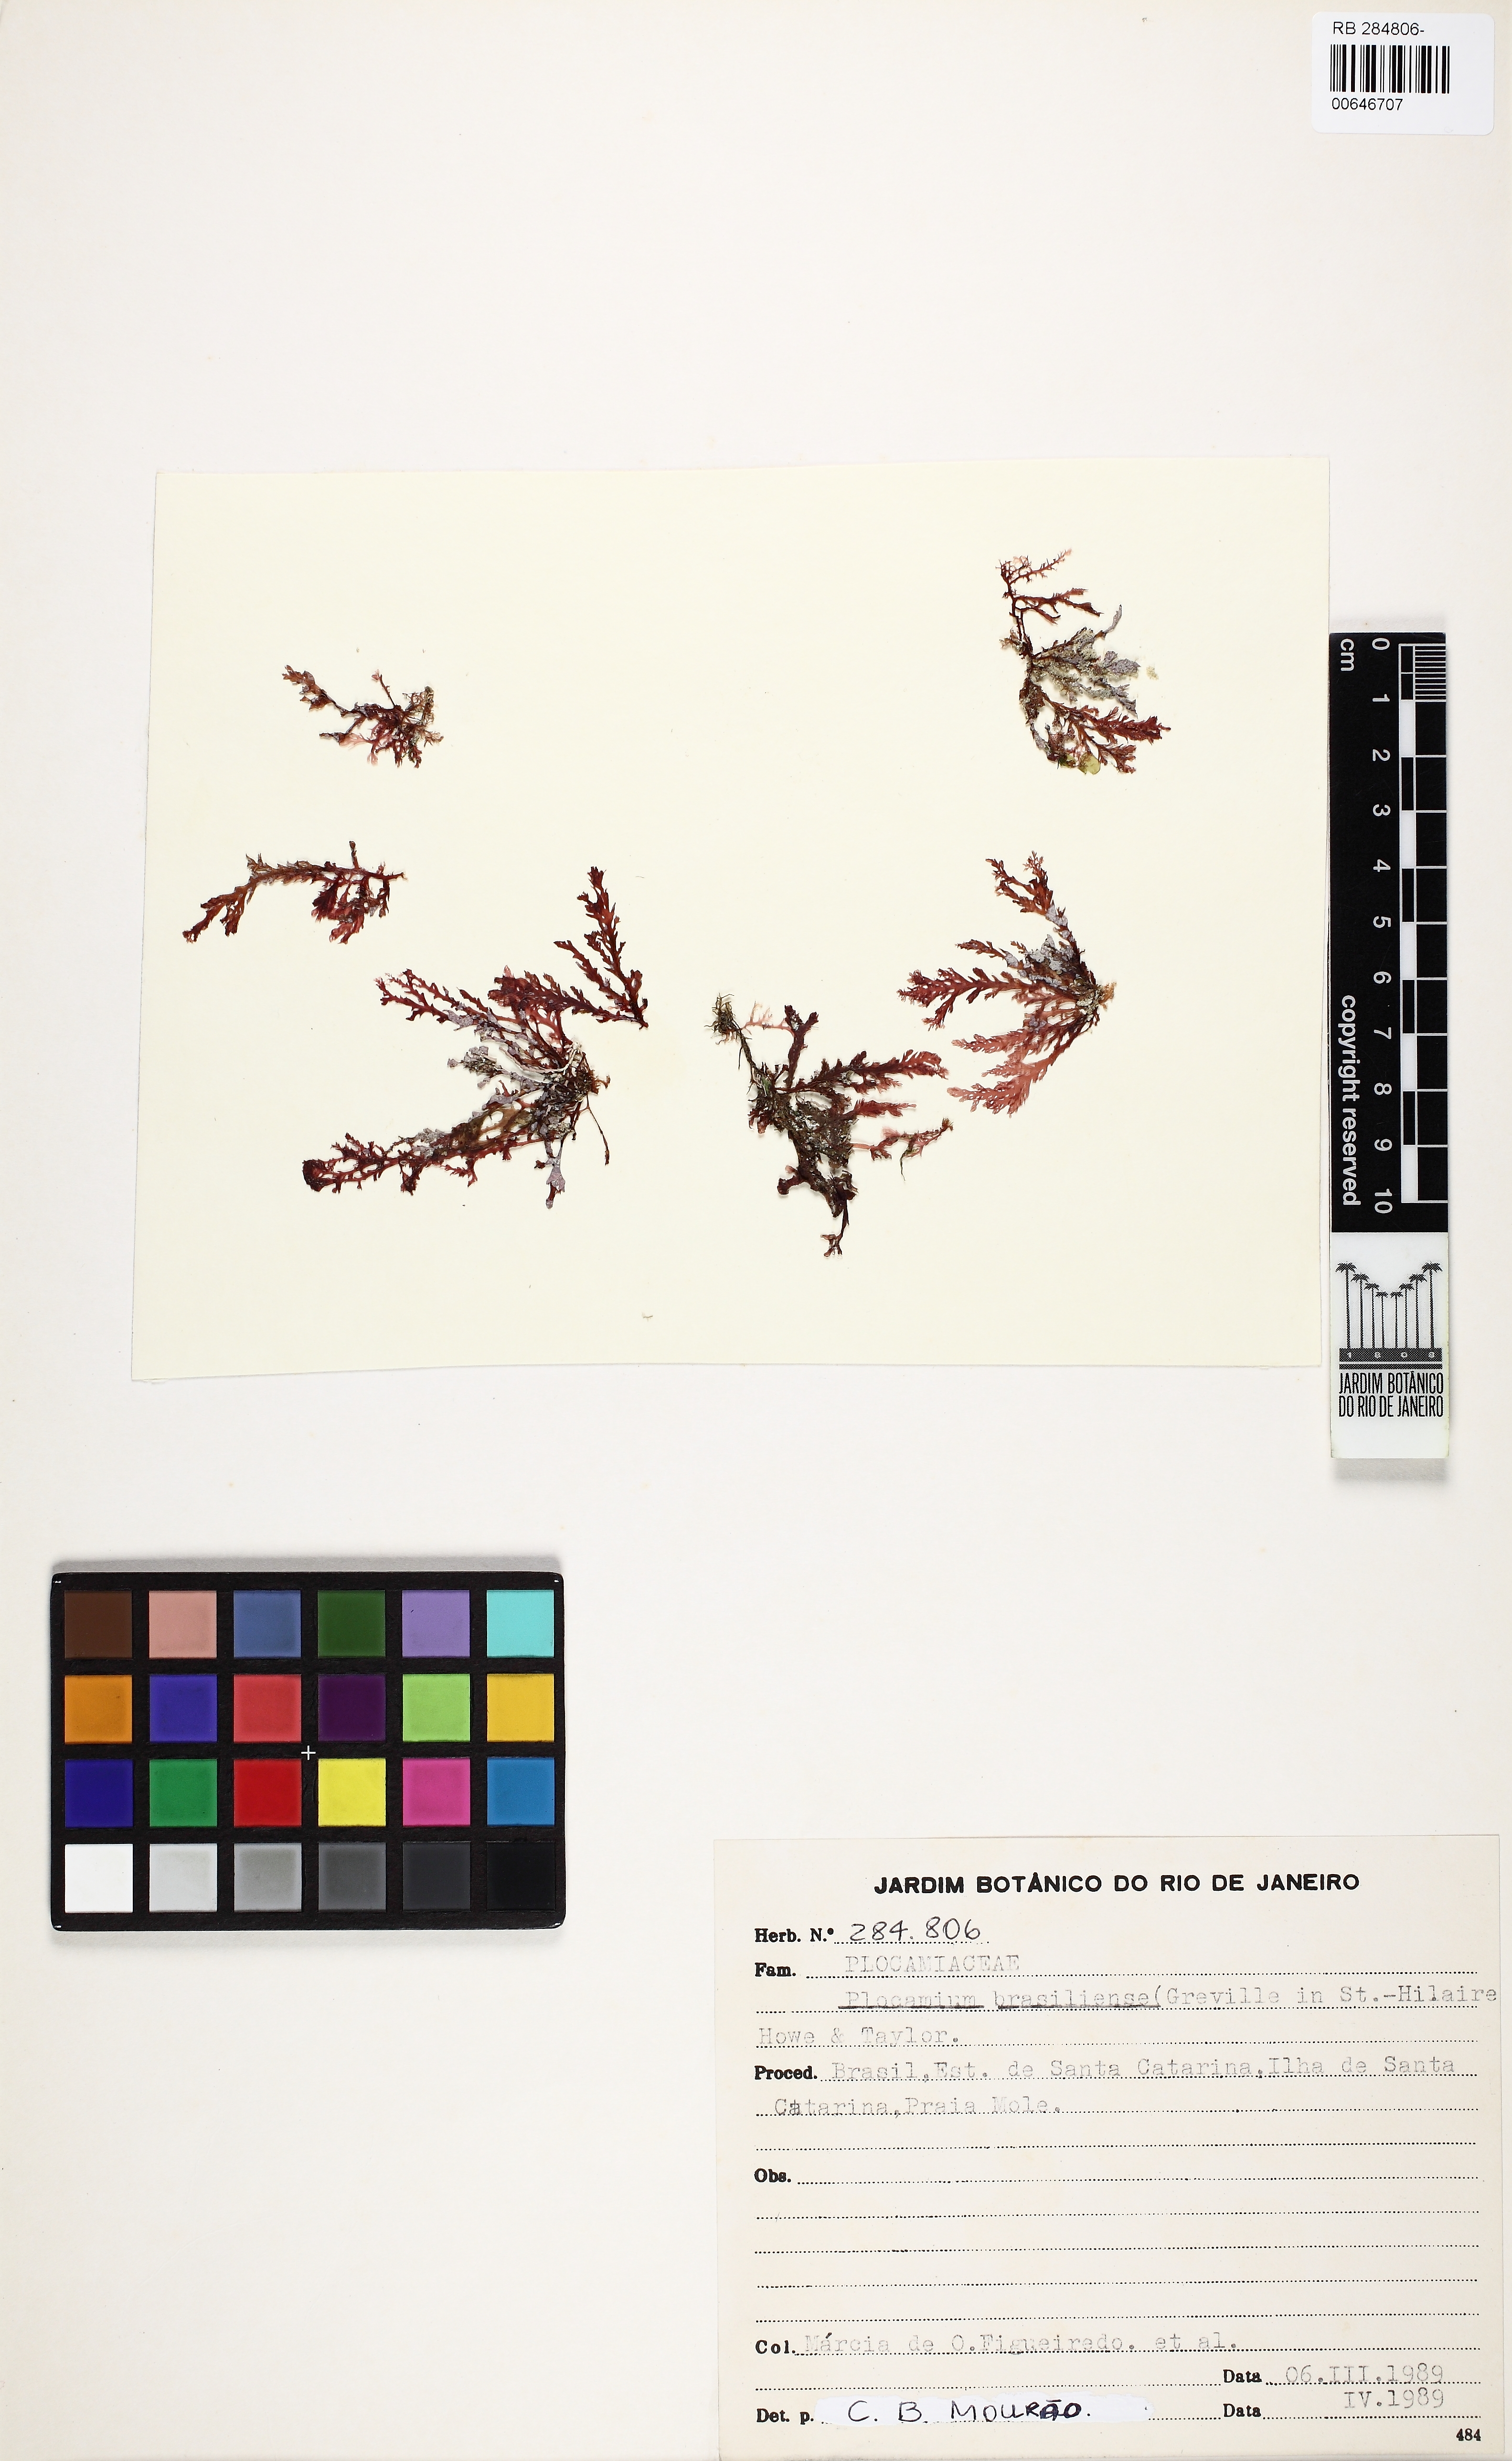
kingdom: Plantae
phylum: Rhodophyta
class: Florideophyceae
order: Plocamiales
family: Plocamiaceae
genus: Plocamium
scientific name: Plocamium brasiliense
